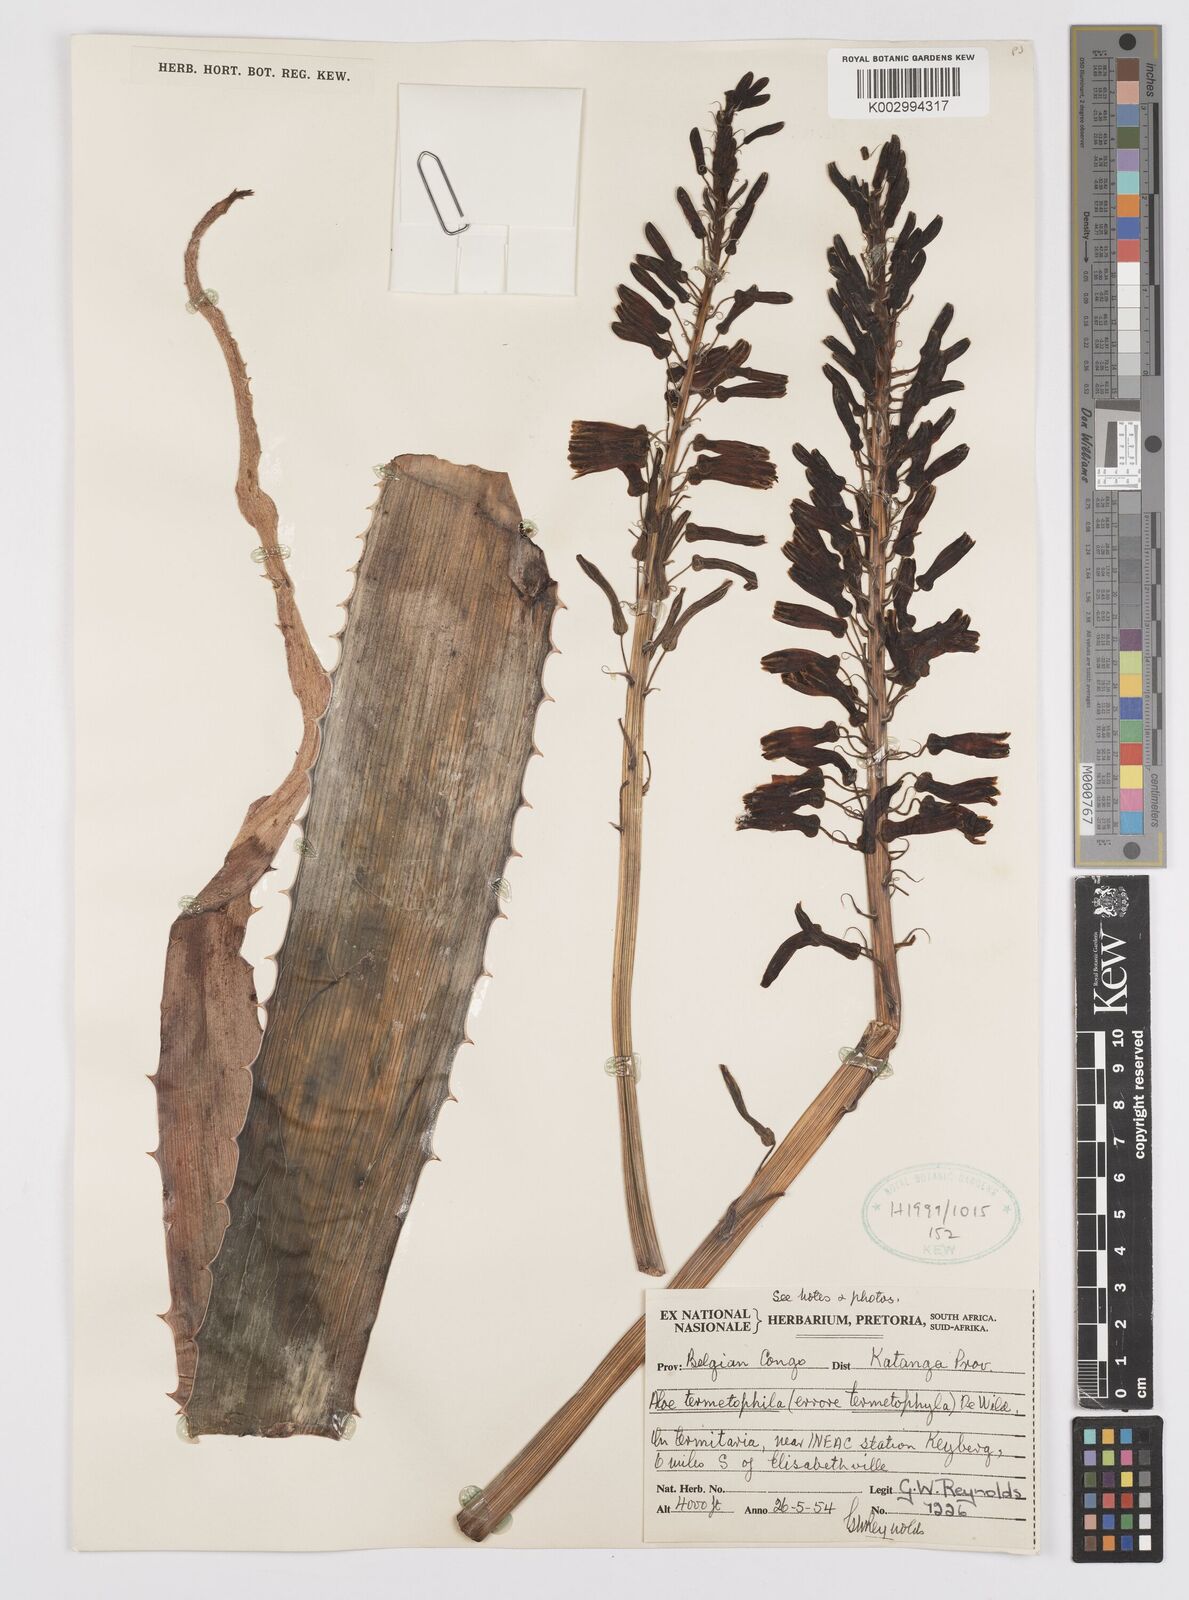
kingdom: Plantae
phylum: Tracheophyta
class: Liliopsida
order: Asparagales
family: Asphodelaceae
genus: Aloe
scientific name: Aloe greatheadii
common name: Greathead's aloe
